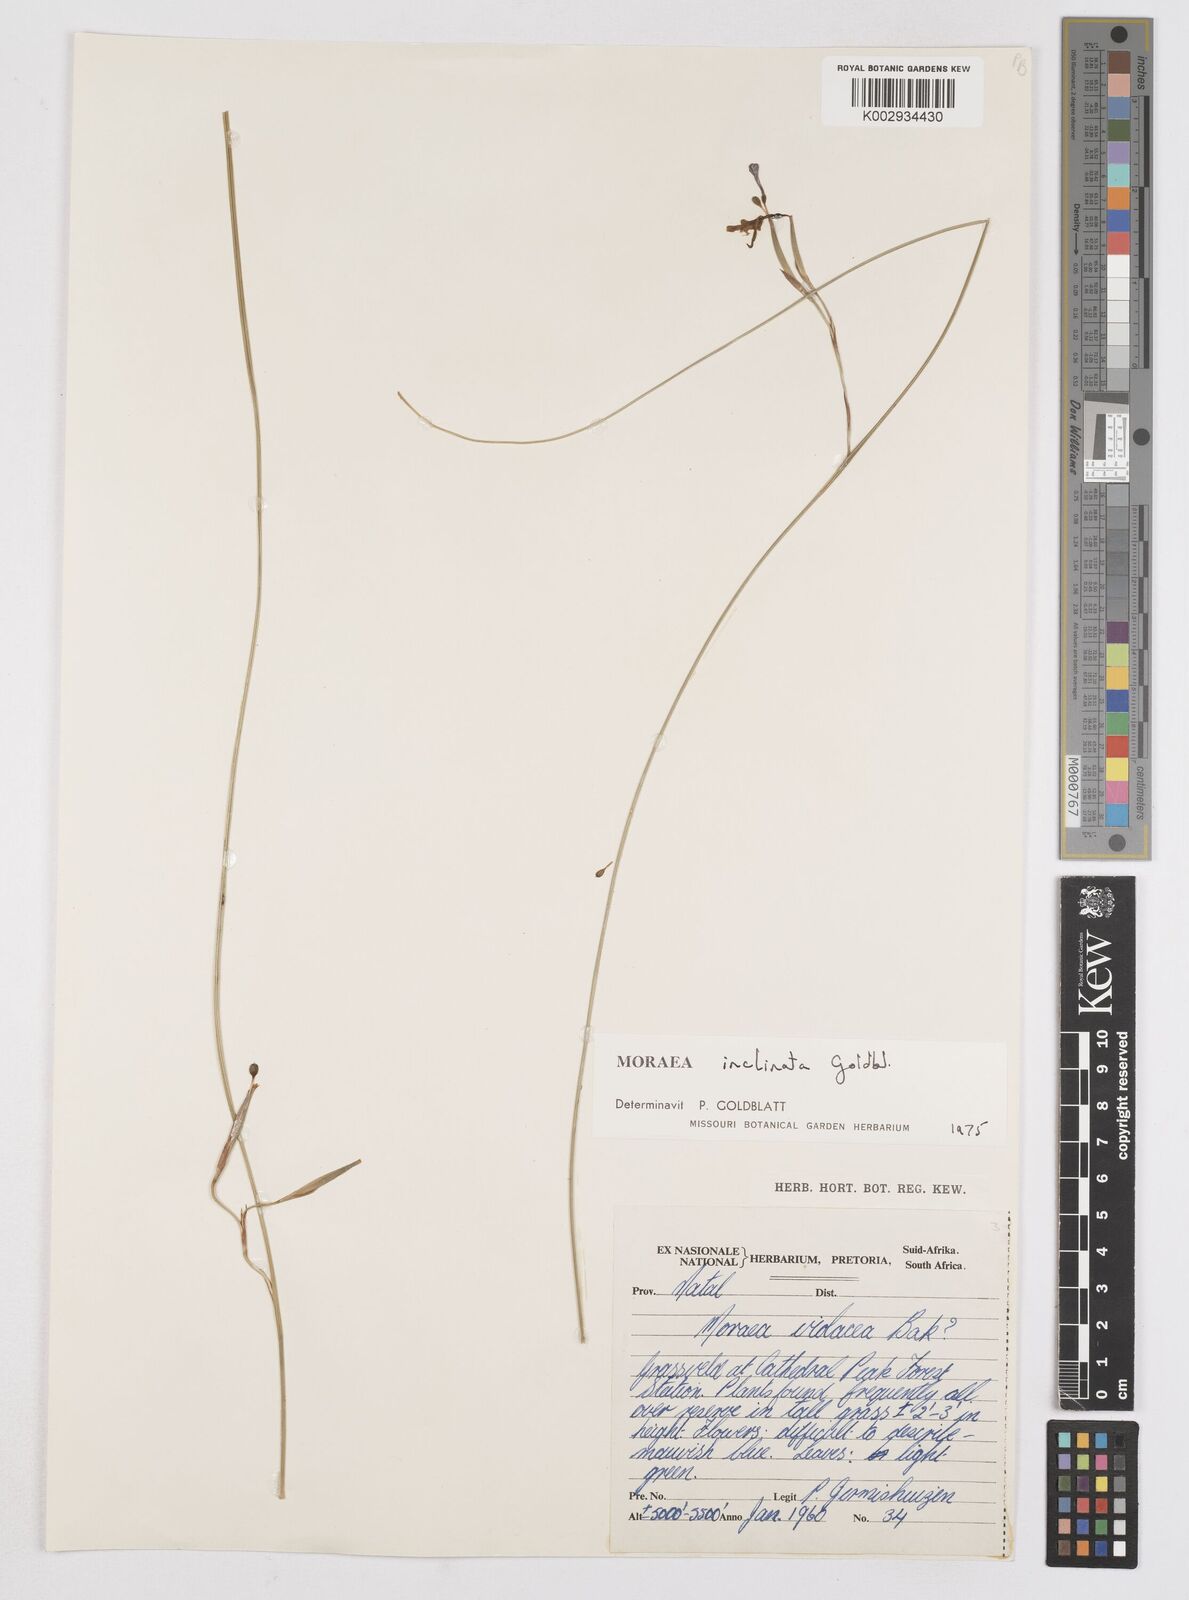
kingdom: Plantae
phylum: Tracheophyta
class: Liliopsida
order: Asparagales
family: Iridaceae
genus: Moraea
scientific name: Moraea inclinata
